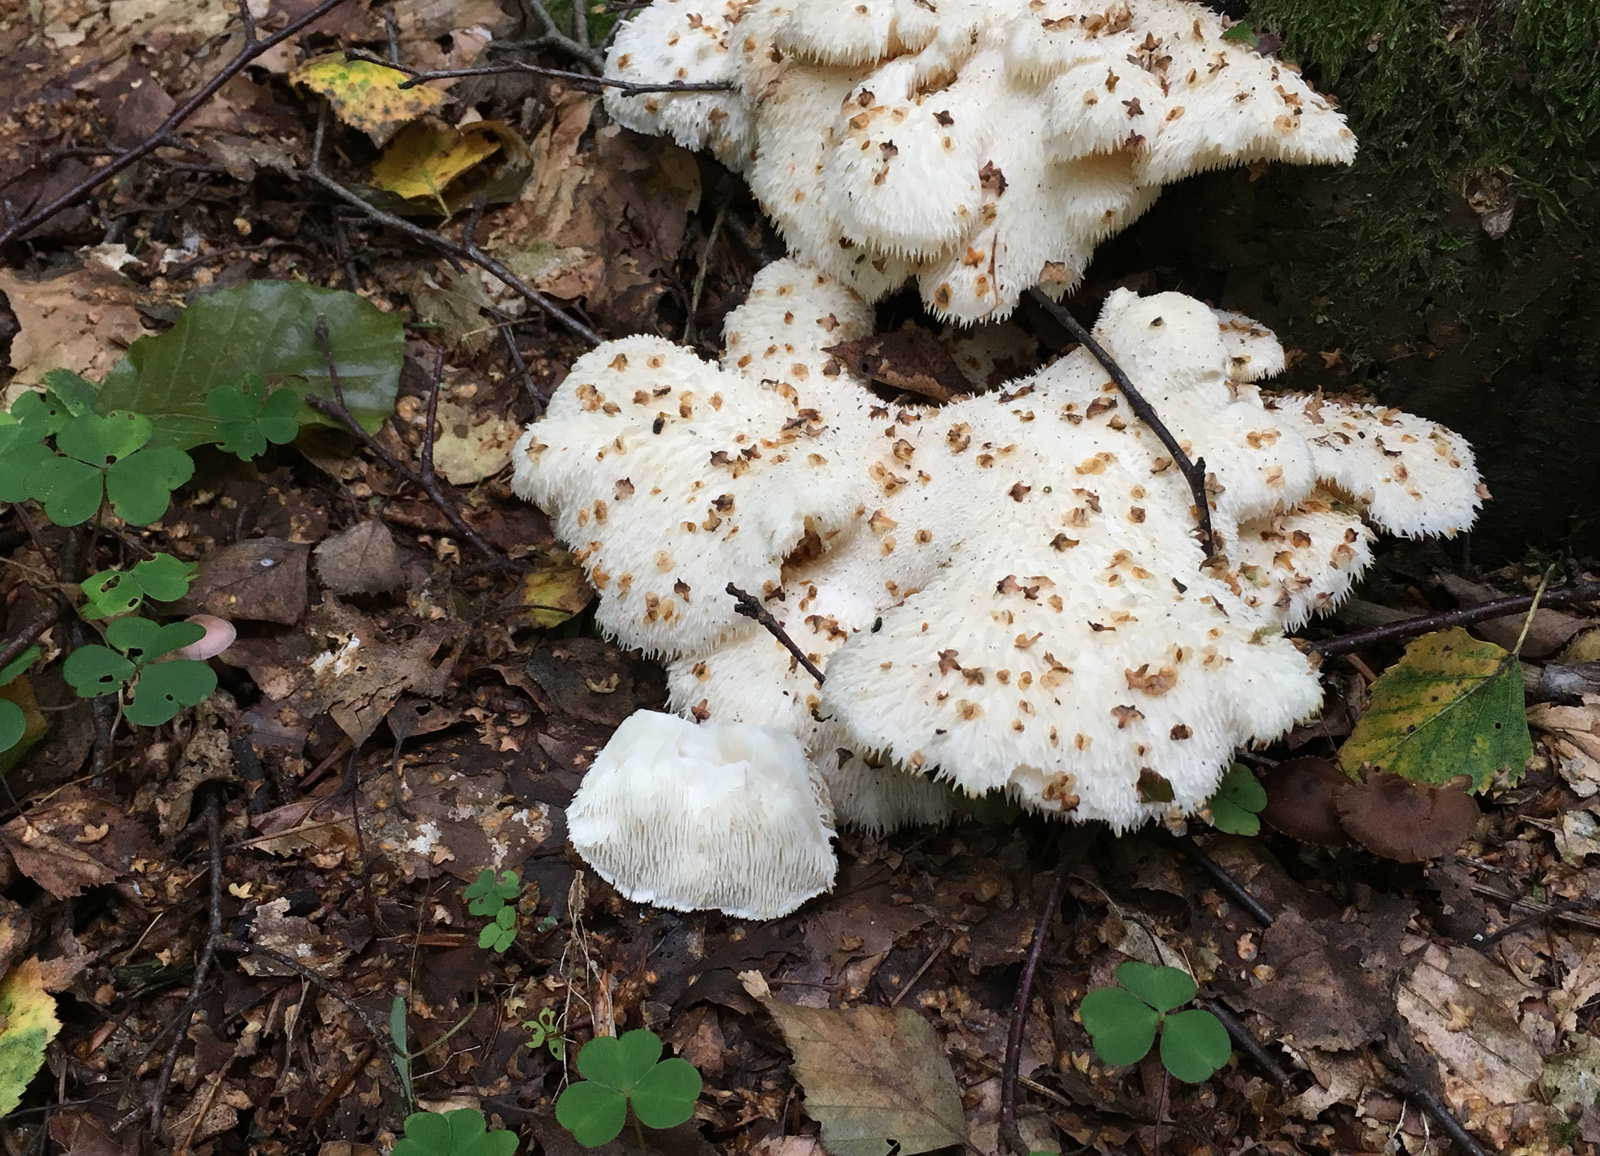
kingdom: Fungi
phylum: Basidiomycota
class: Agaricomycetes
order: Russulales
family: Hericiaceae
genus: Hericium
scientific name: Hericium cirrhatum
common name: børstepigsvamp
